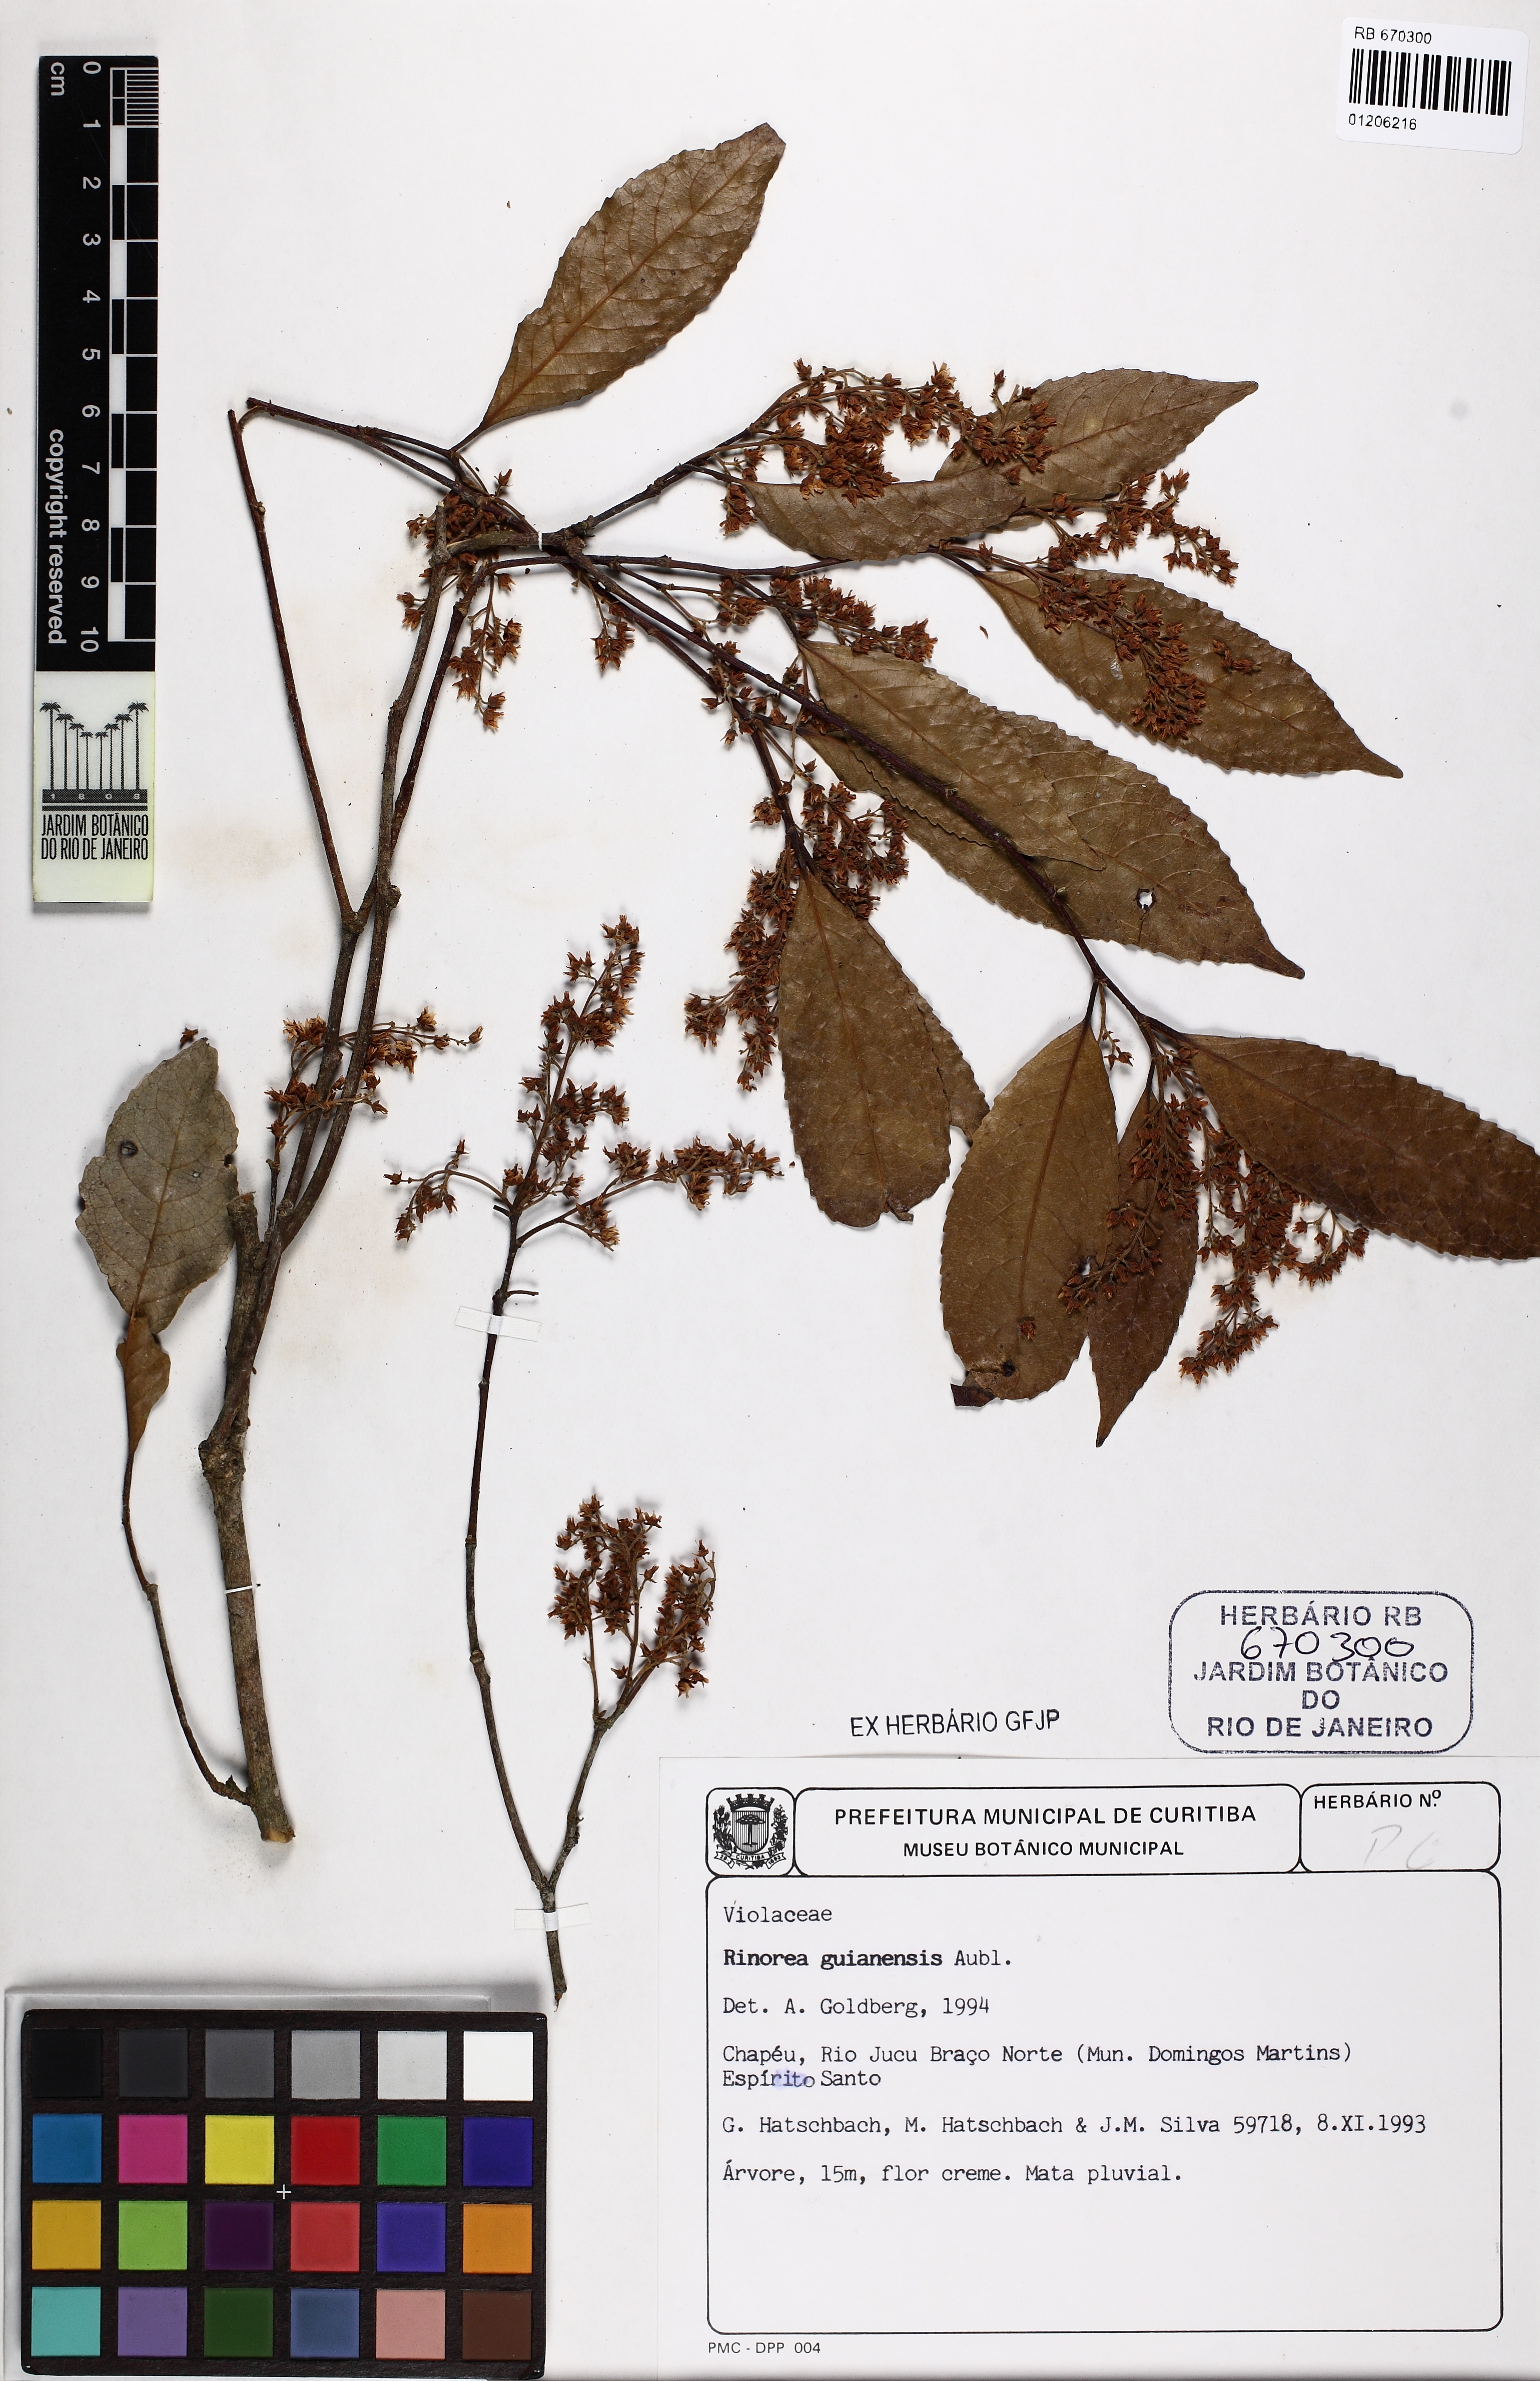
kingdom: Plantae
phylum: Tracheophyta
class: Magnoliopsida
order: Malpighiales
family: Violaceae
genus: Rinorea
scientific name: Rinorea guianensis
